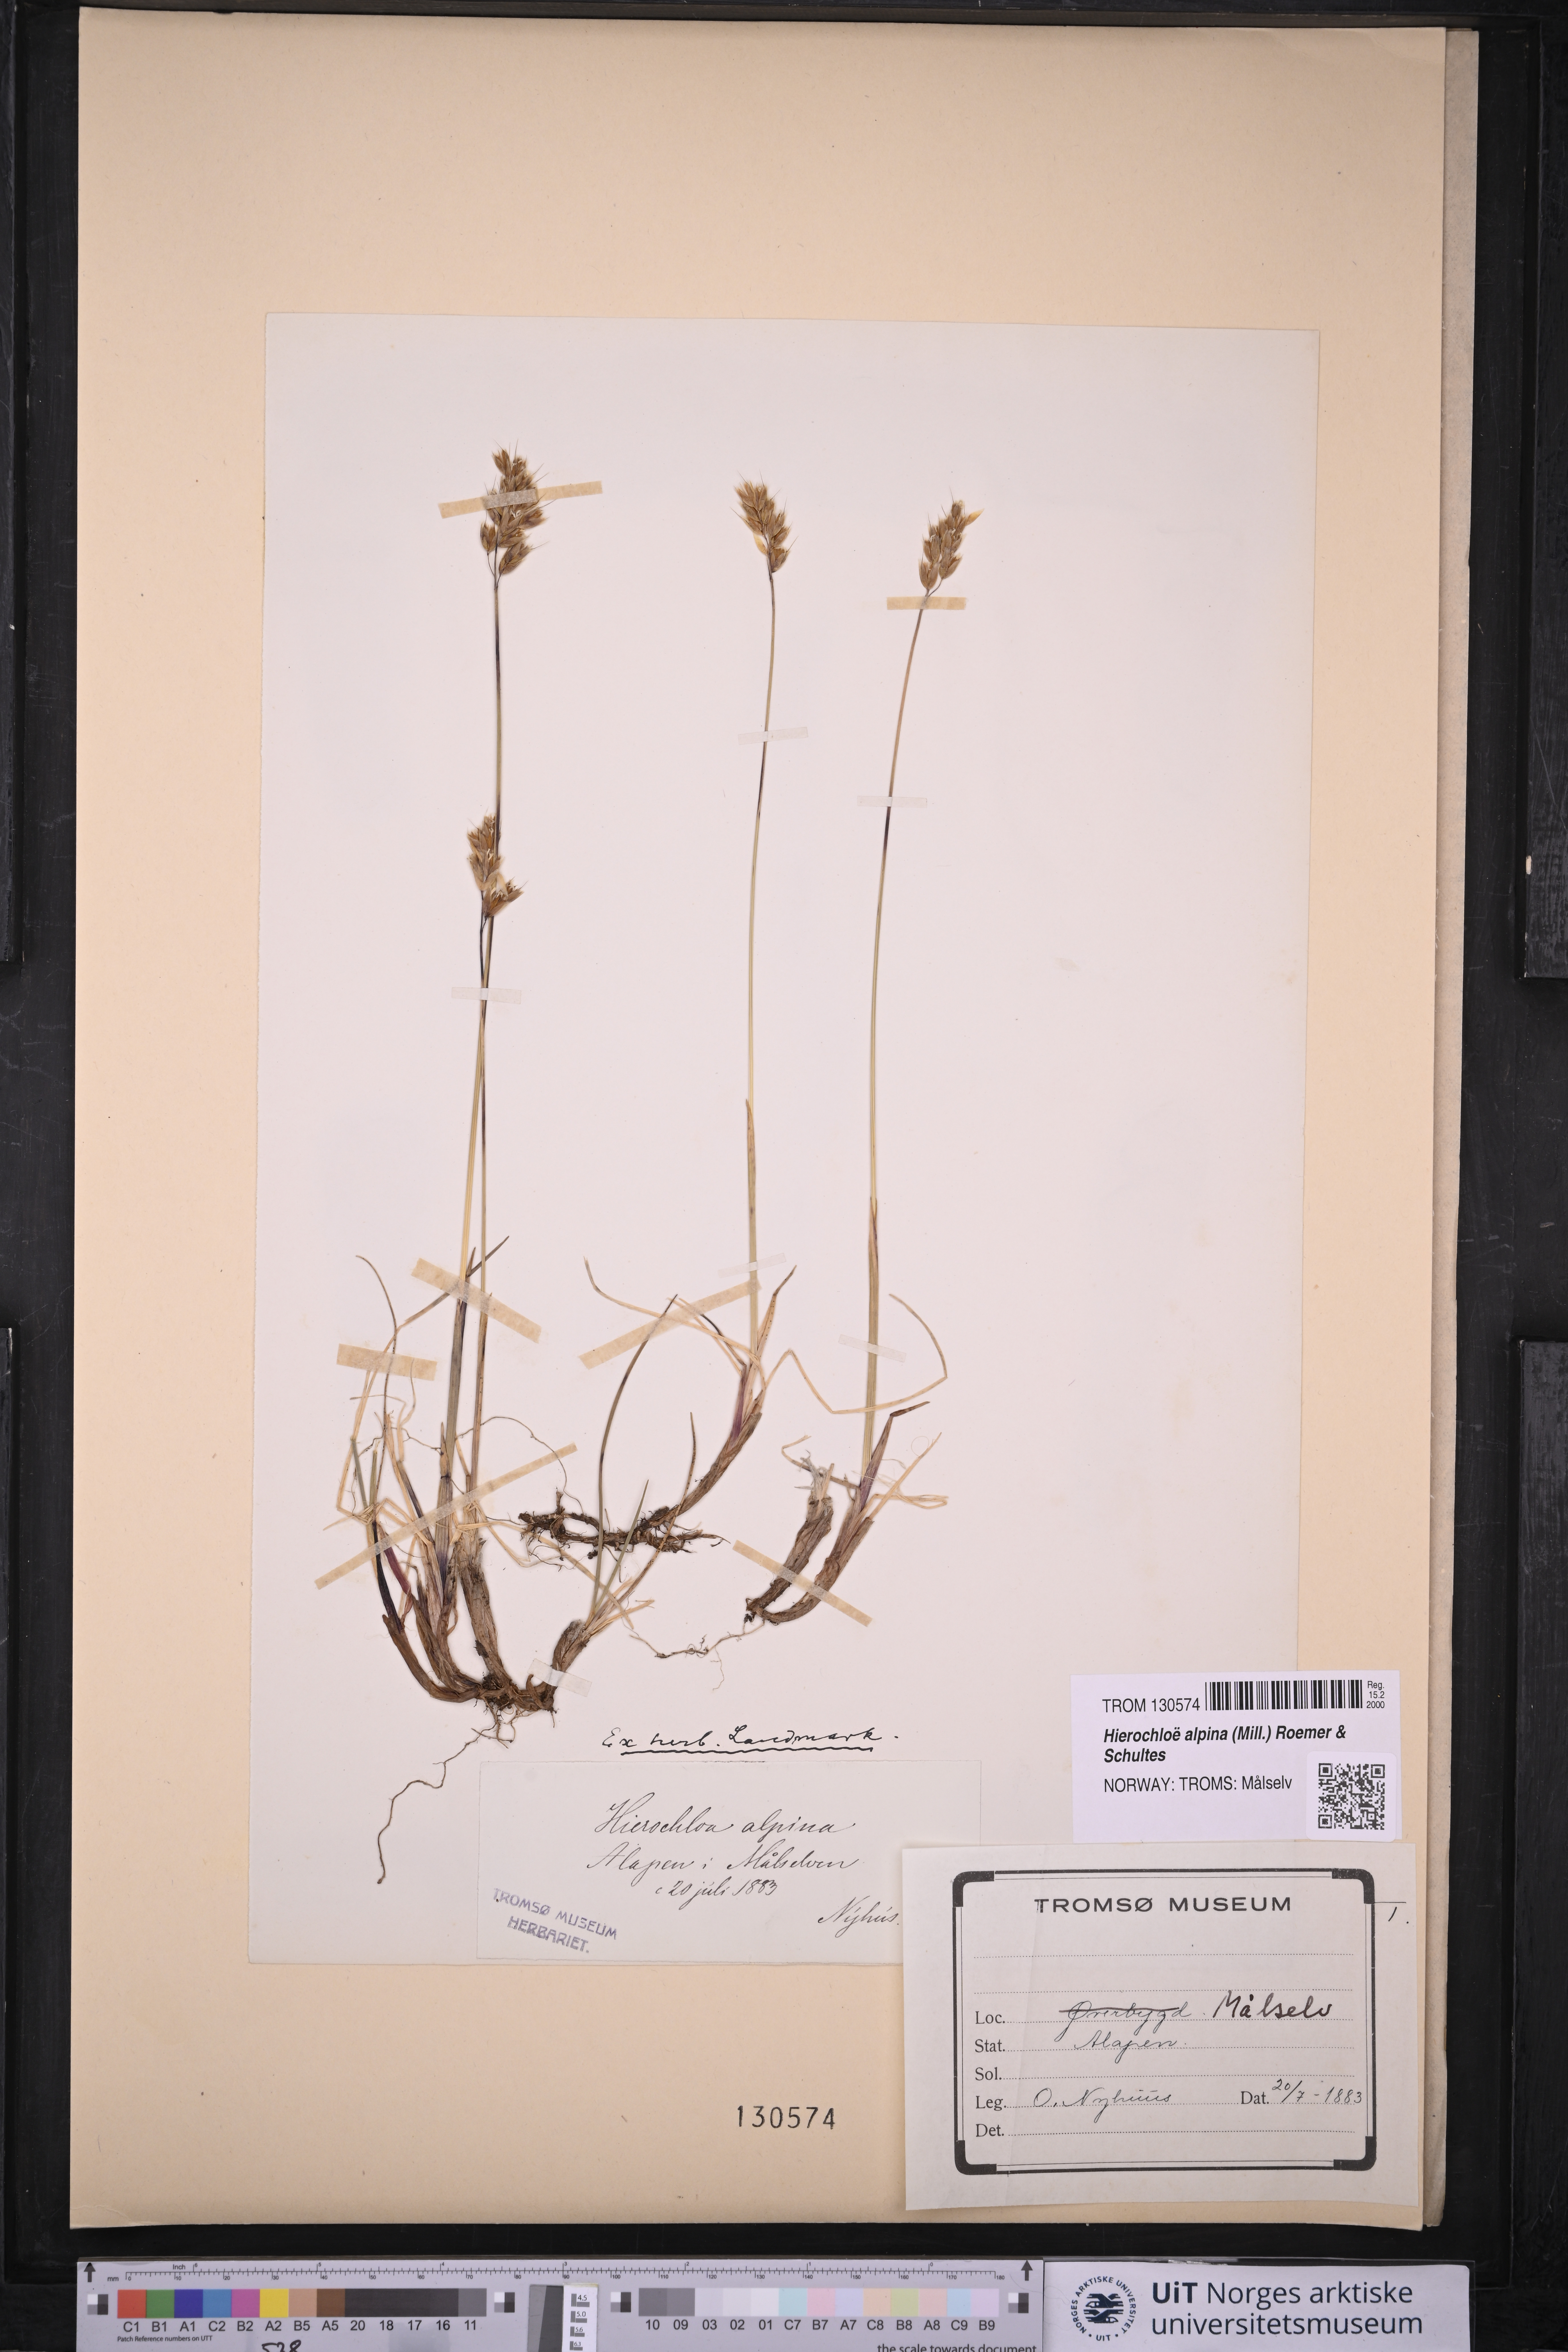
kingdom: Plantae
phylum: Tracheophyta
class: Liliopsida
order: Poales
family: Poaceae
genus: Anthoxanthum
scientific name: Anthoxanthum monticola
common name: Alpine sweetgrass
